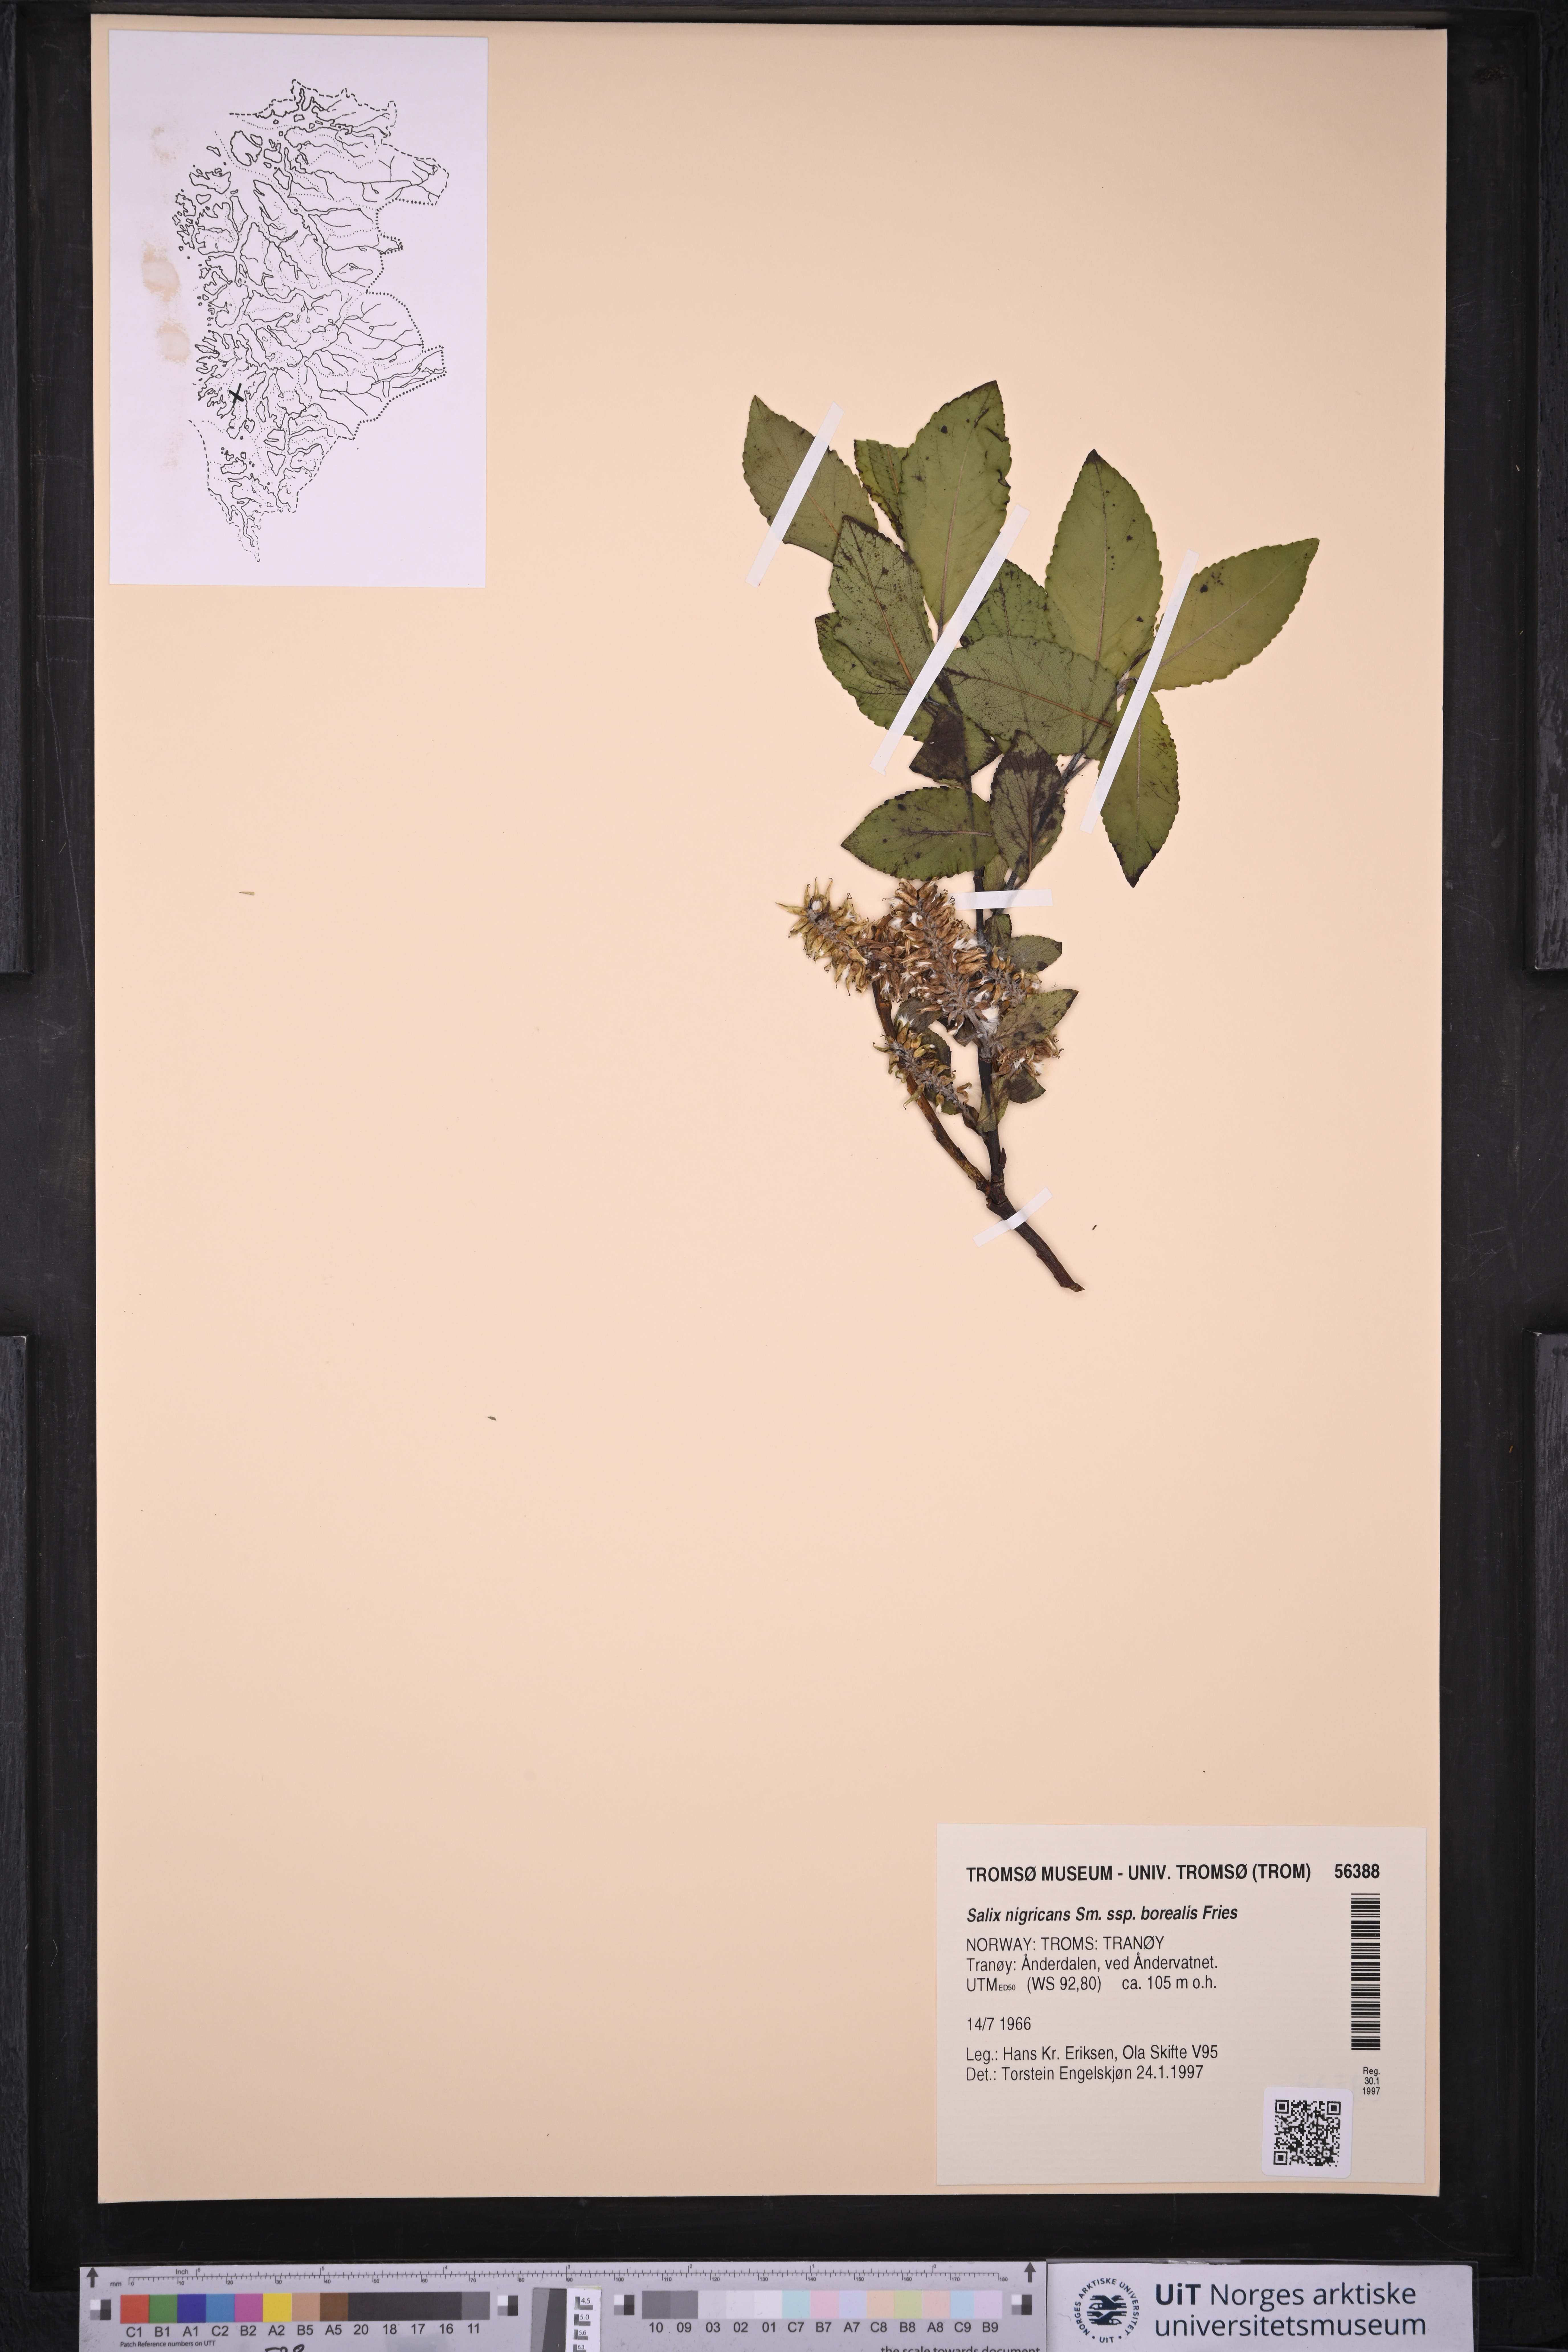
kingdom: Plantae
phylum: Tracheophyta
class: Magnoliopsida
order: Malpighiales
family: Salicaceae
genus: Salix
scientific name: Salix myrsinifolia
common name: Dark-leaved willow
